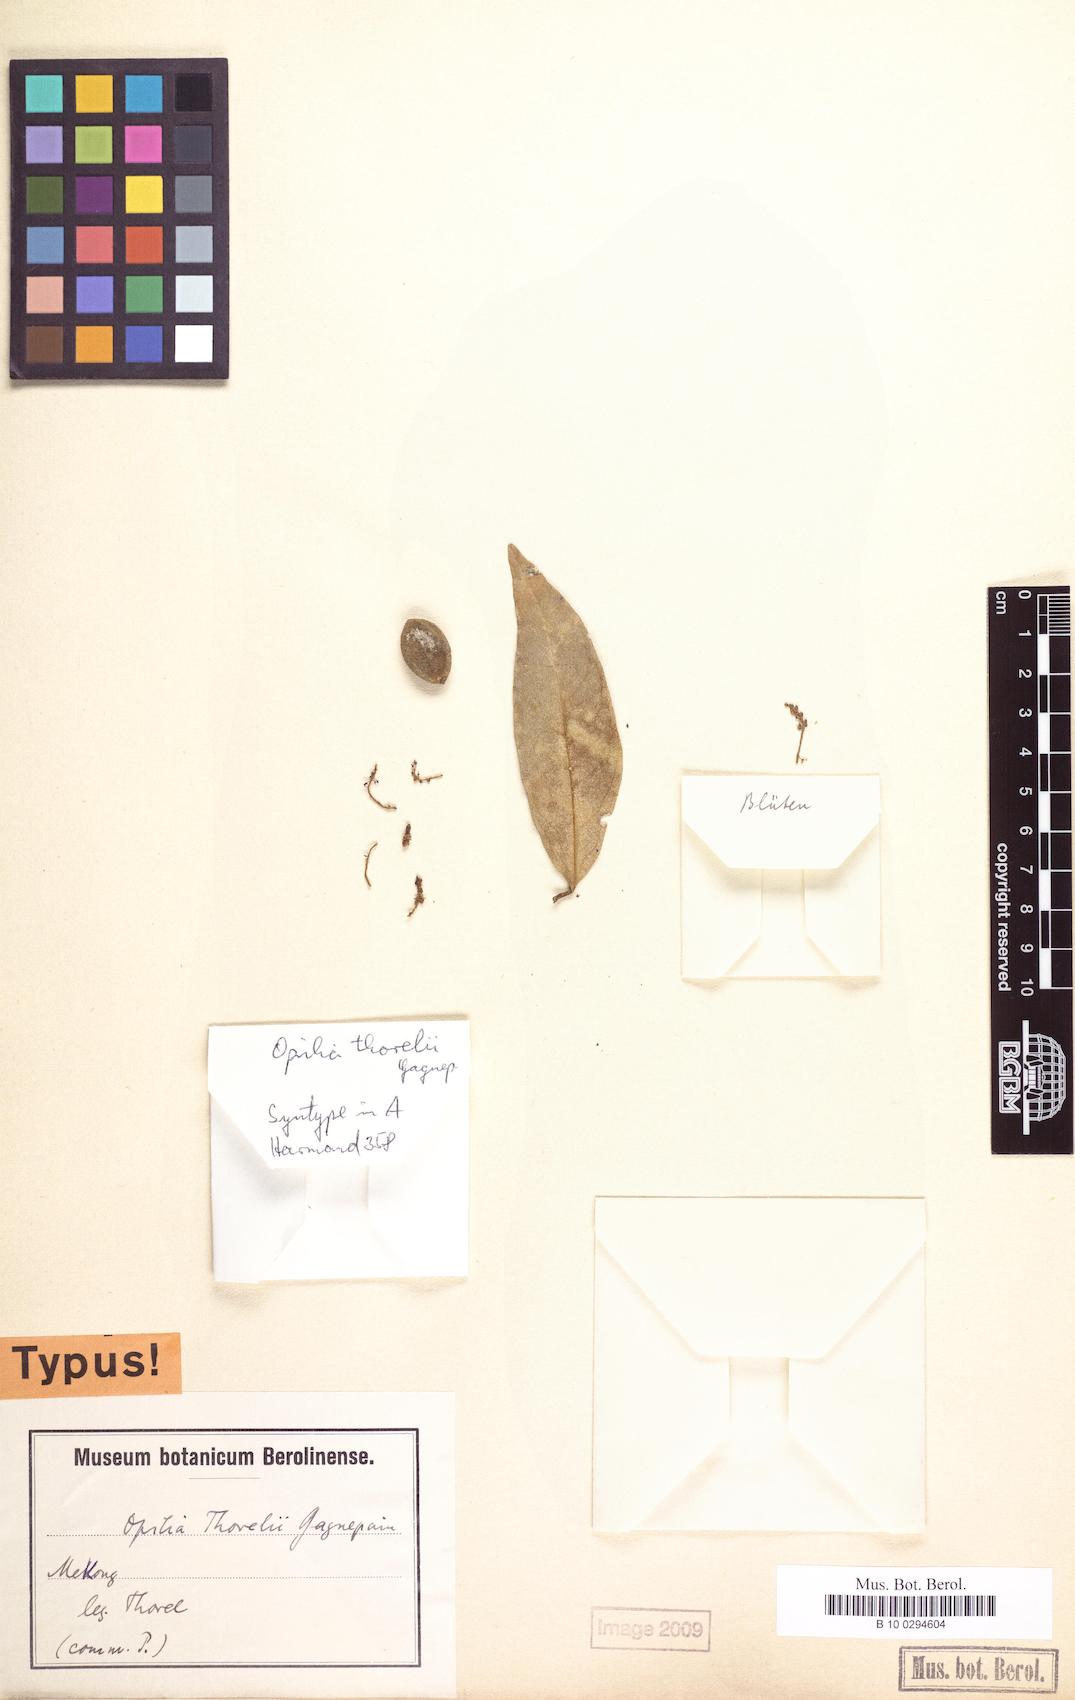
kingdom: Plantae
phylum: Tracheophyta
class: Magnoliopsida
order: Santalales
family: Opiliaceae
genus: Opilia
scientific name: Opilia amentacea
